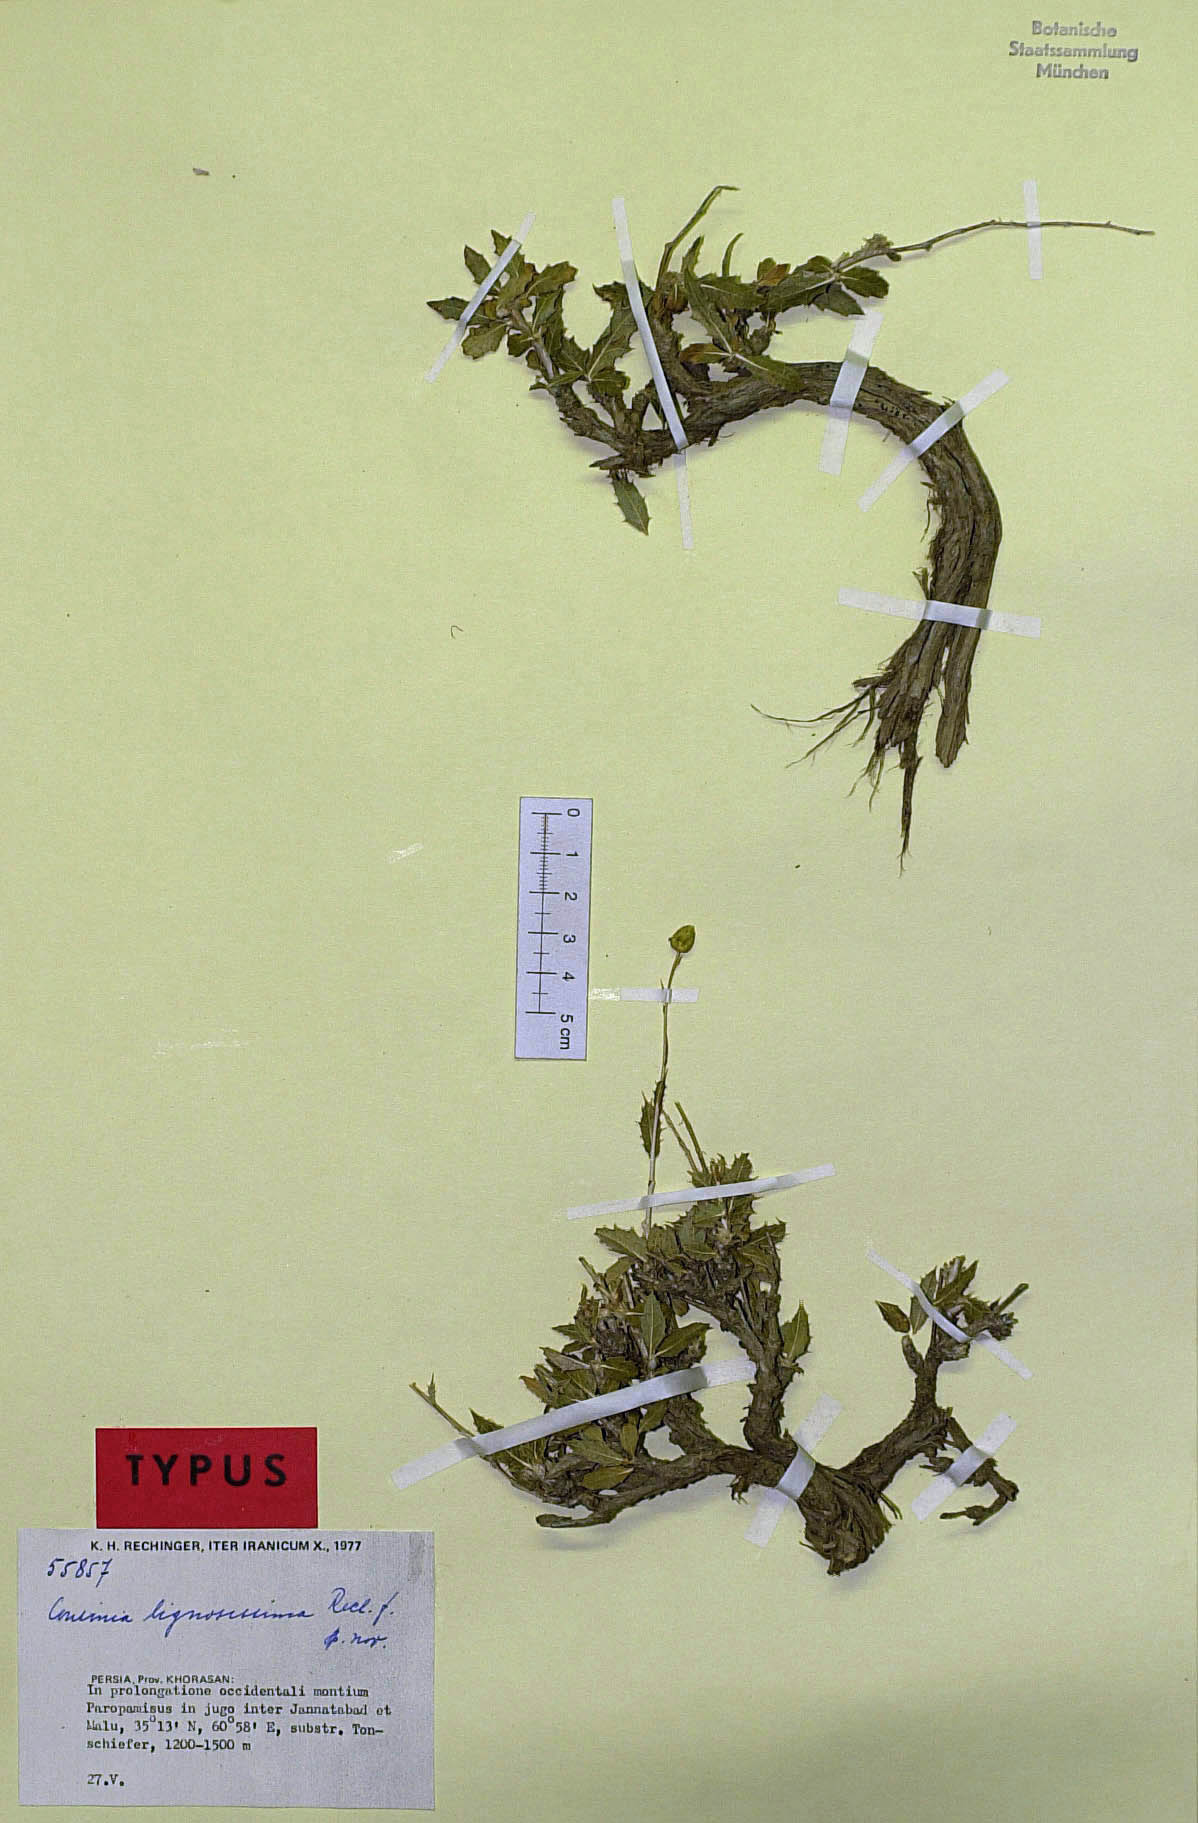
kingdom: Plantae
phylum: Tracheophyta
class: Magnoliopsida
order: Asterales
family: Asteraceae
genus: Cousinia
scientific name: Cousinia lignosissima
